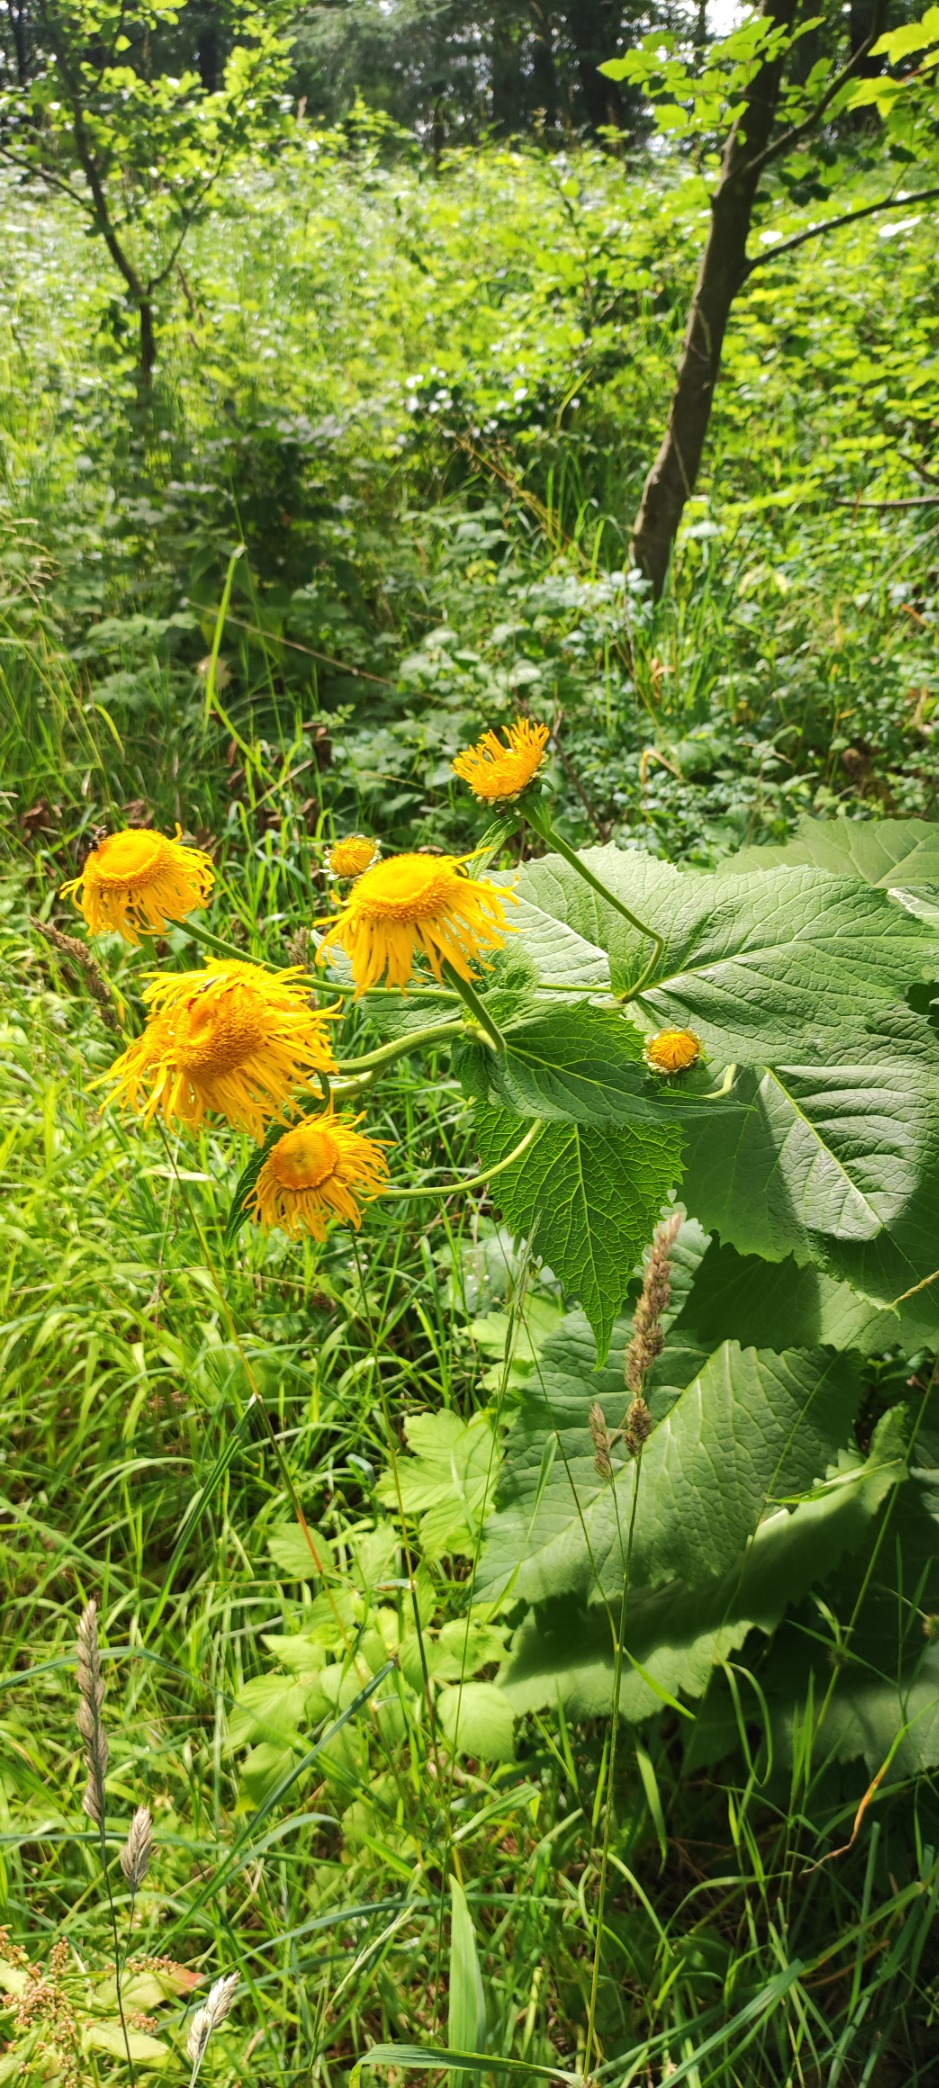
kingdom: Plantae
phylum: Tracheophyta
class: Magnoliopsida
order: Asterales
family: Asteraceae
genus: Telekia
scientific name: Telekia speciosa
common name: Tusindstråle
